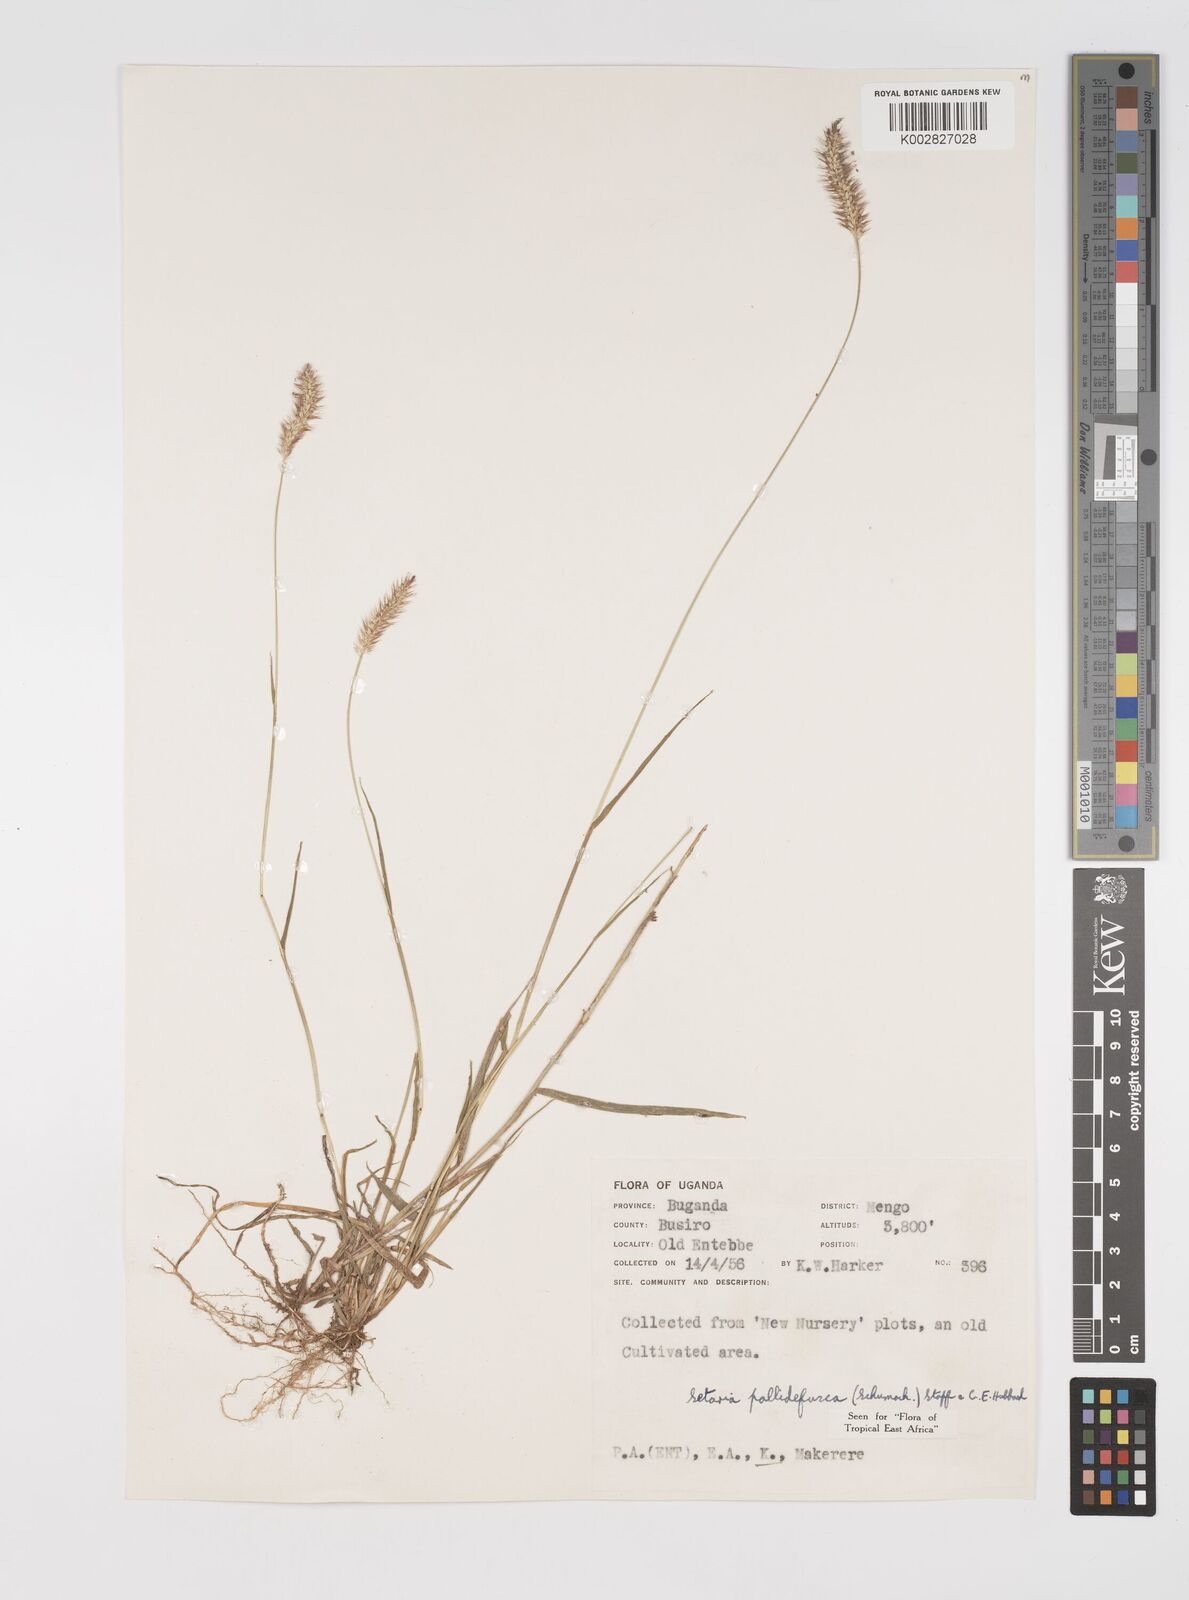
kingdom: Plantae
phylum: Tracheophyta
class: Liliopsida
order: Poales
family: Poaceae
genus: Setaria
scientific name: Setaria pumila
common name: Yellow bristle-grass
